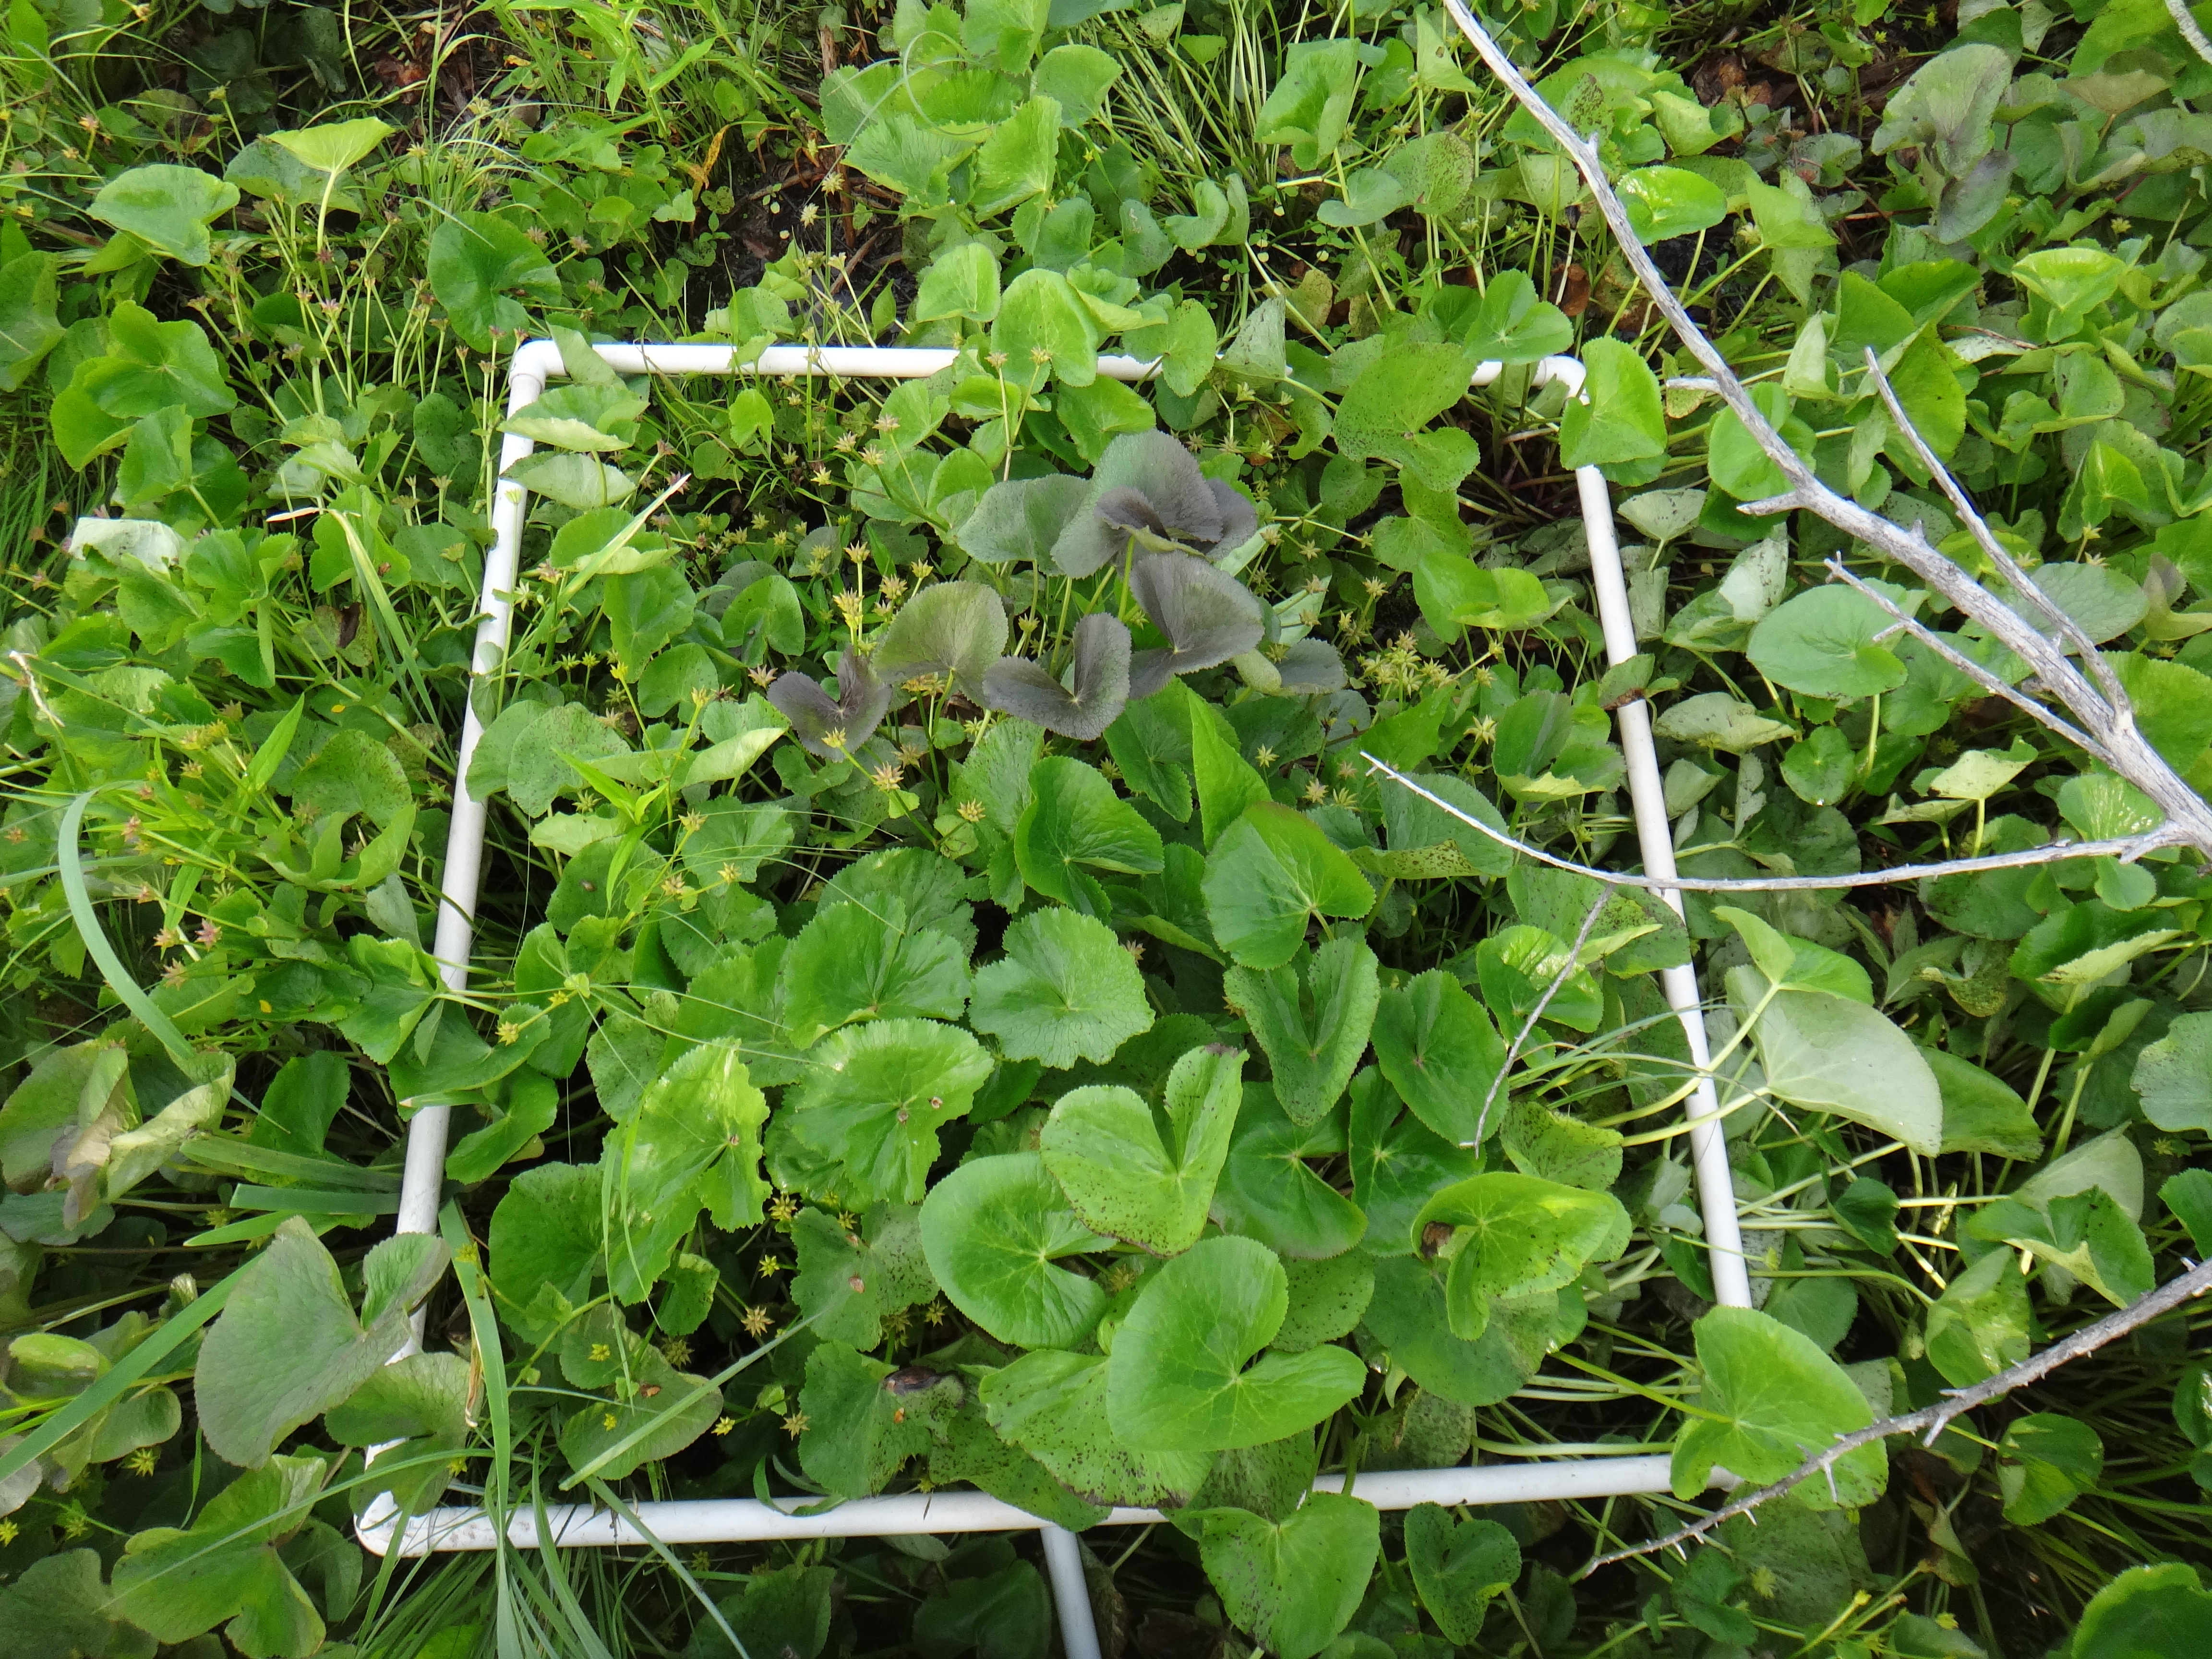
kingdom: Plantae
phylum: Tracheophyta
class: Liliopsida
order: Poales
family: Cyperaceae
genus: Carex
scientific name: Carex lasiocarpa
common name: Slender sedge
